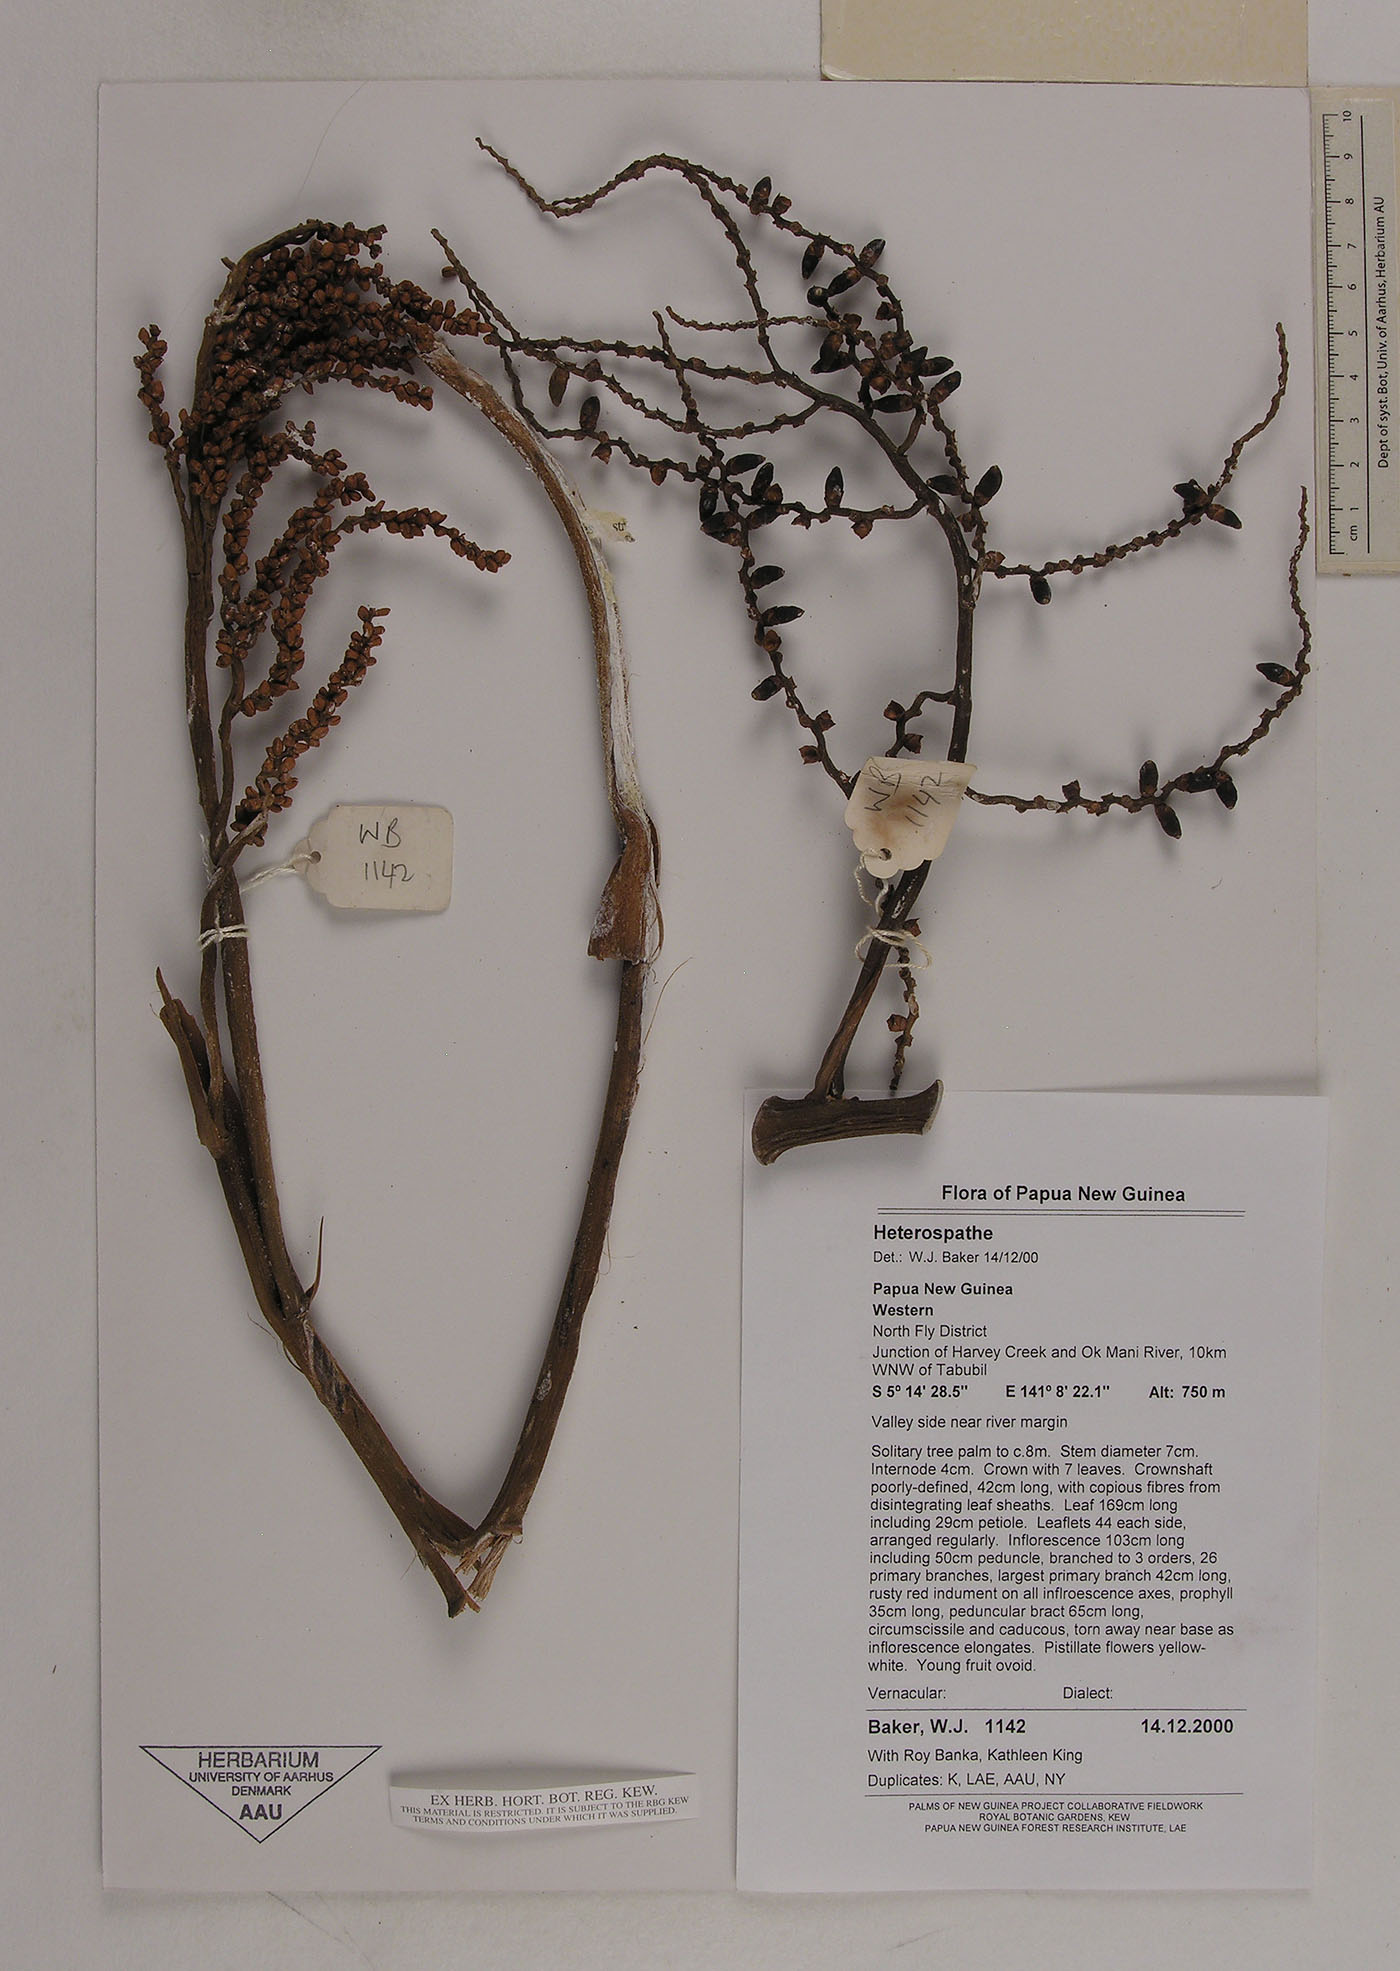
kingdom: Plantae
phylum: Tracheophyta
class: Liliopsida
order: Arecales
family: Arecaceae
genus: Heterospathe
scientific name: Heterospathe
